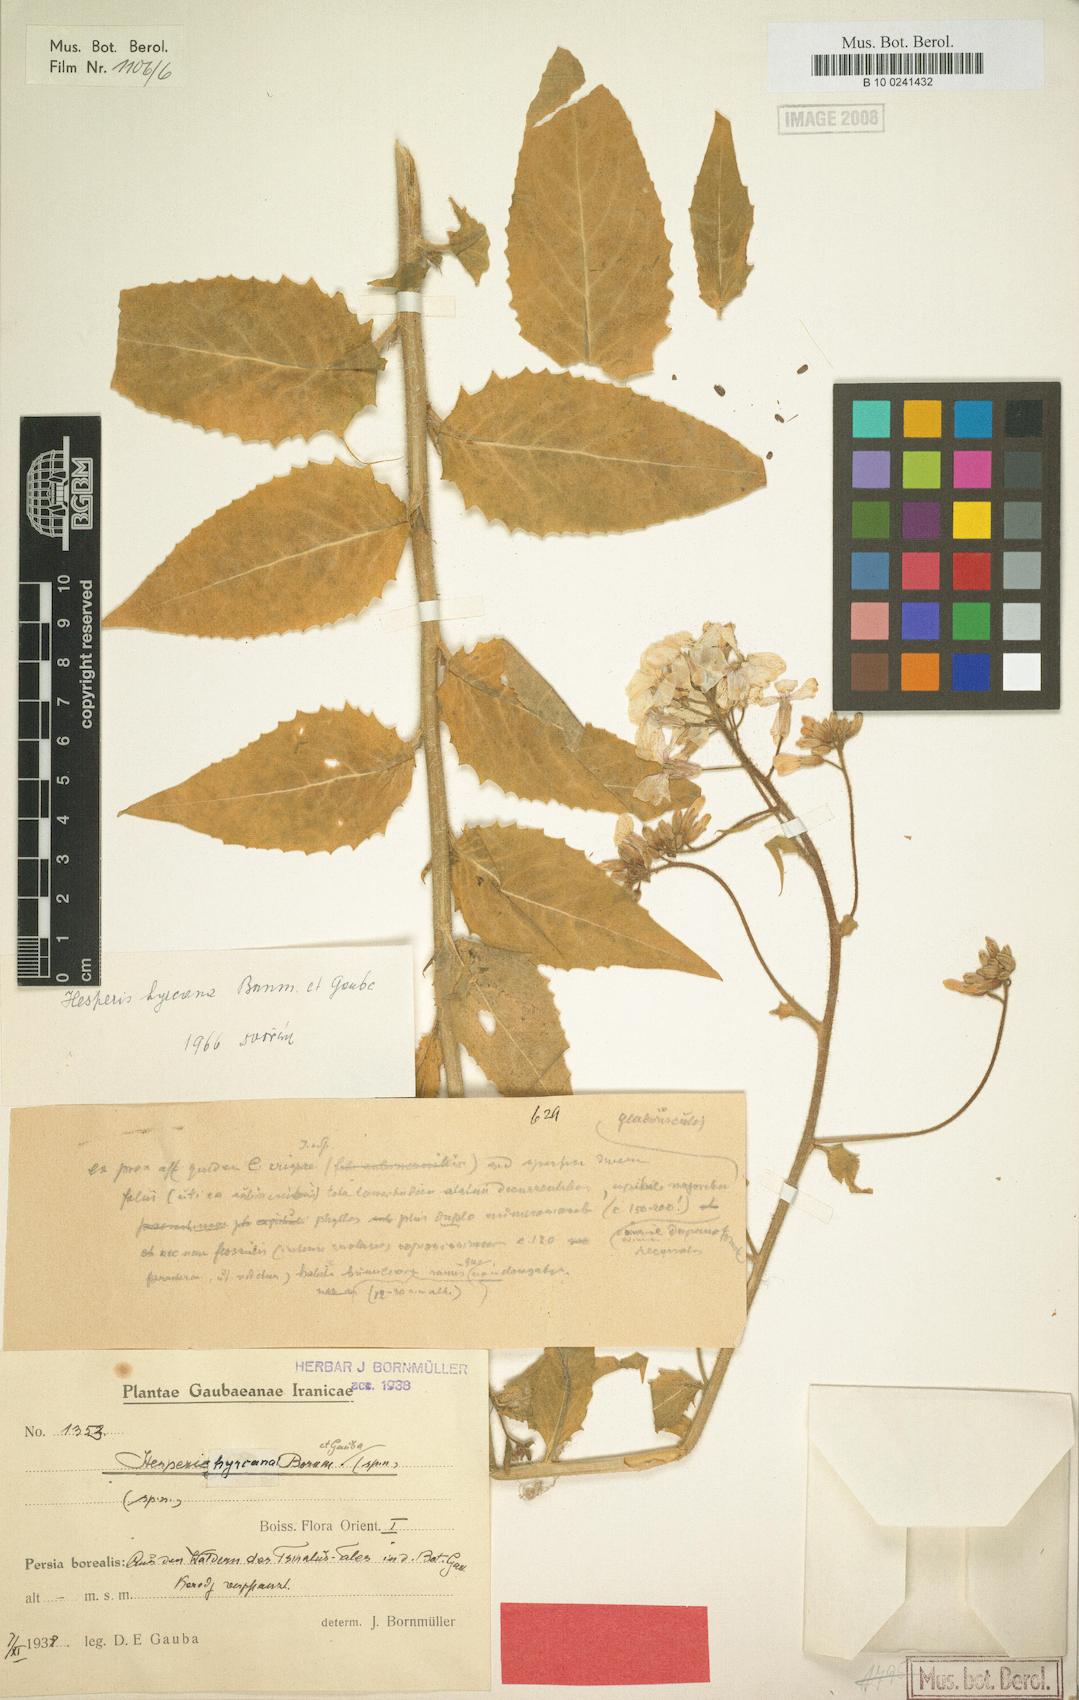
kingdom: Plantae
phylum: Tracheophyta
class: Magnoliopsida
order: Brassicales
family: Brassicaceae
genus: Hesperis
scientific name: Hesperis hyrcana
